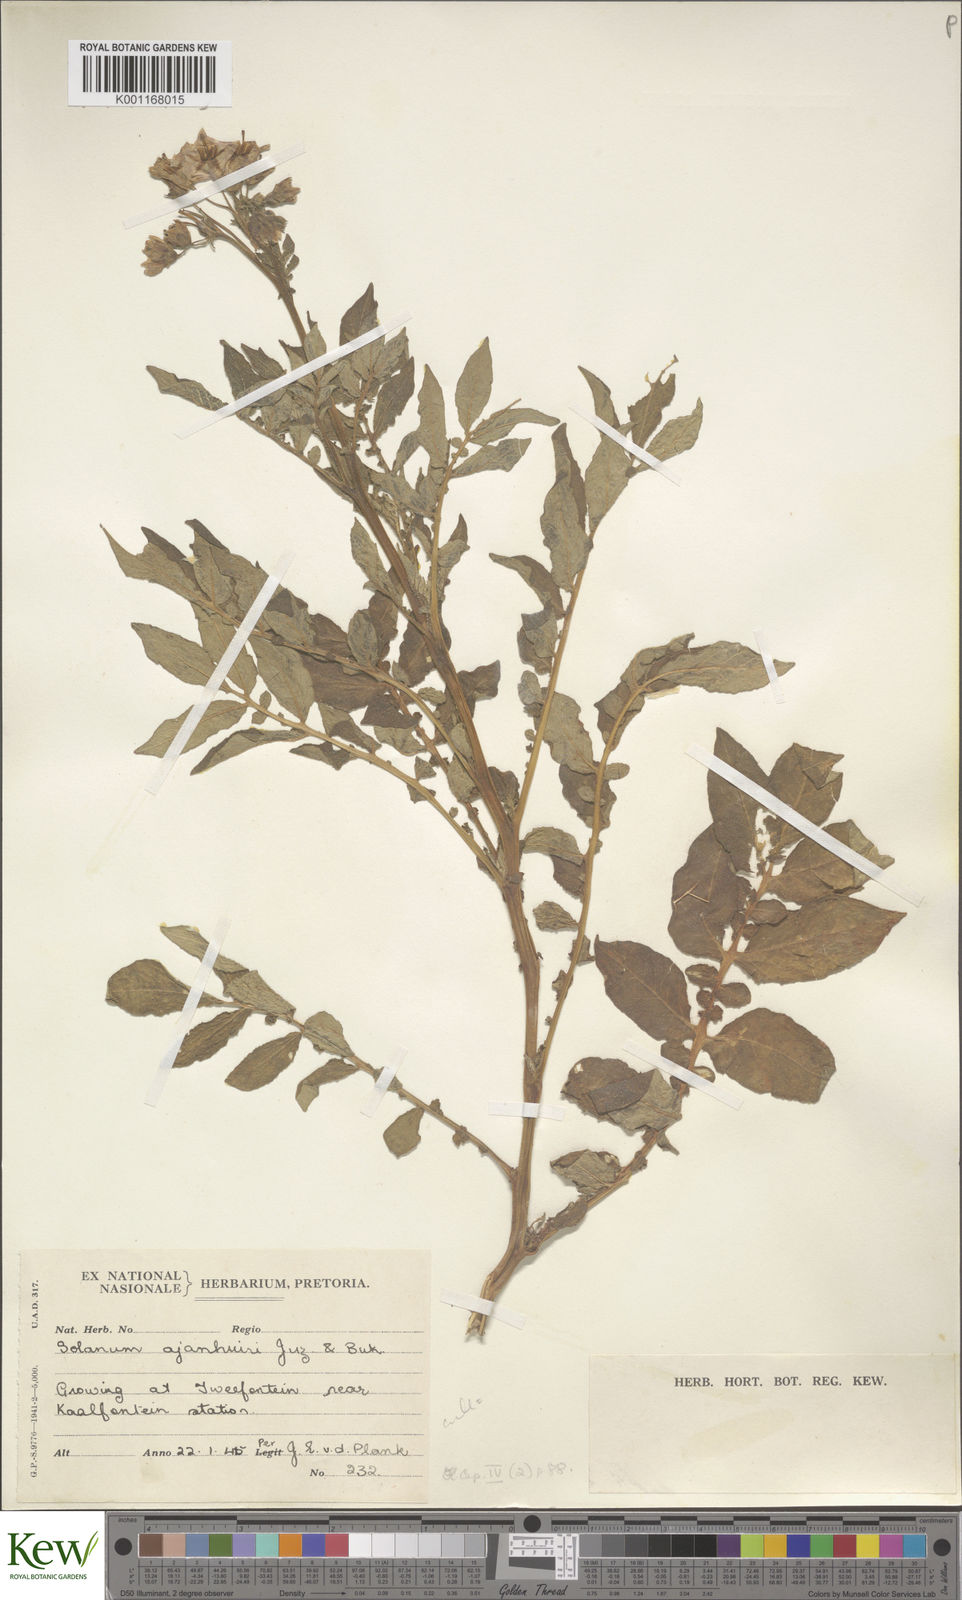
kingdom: Plantae
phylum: Tracheophyta
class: Magnoliopsida
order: Solanales
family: Solanaceae
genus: Solanum
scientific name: Solanum ajanhuiri
